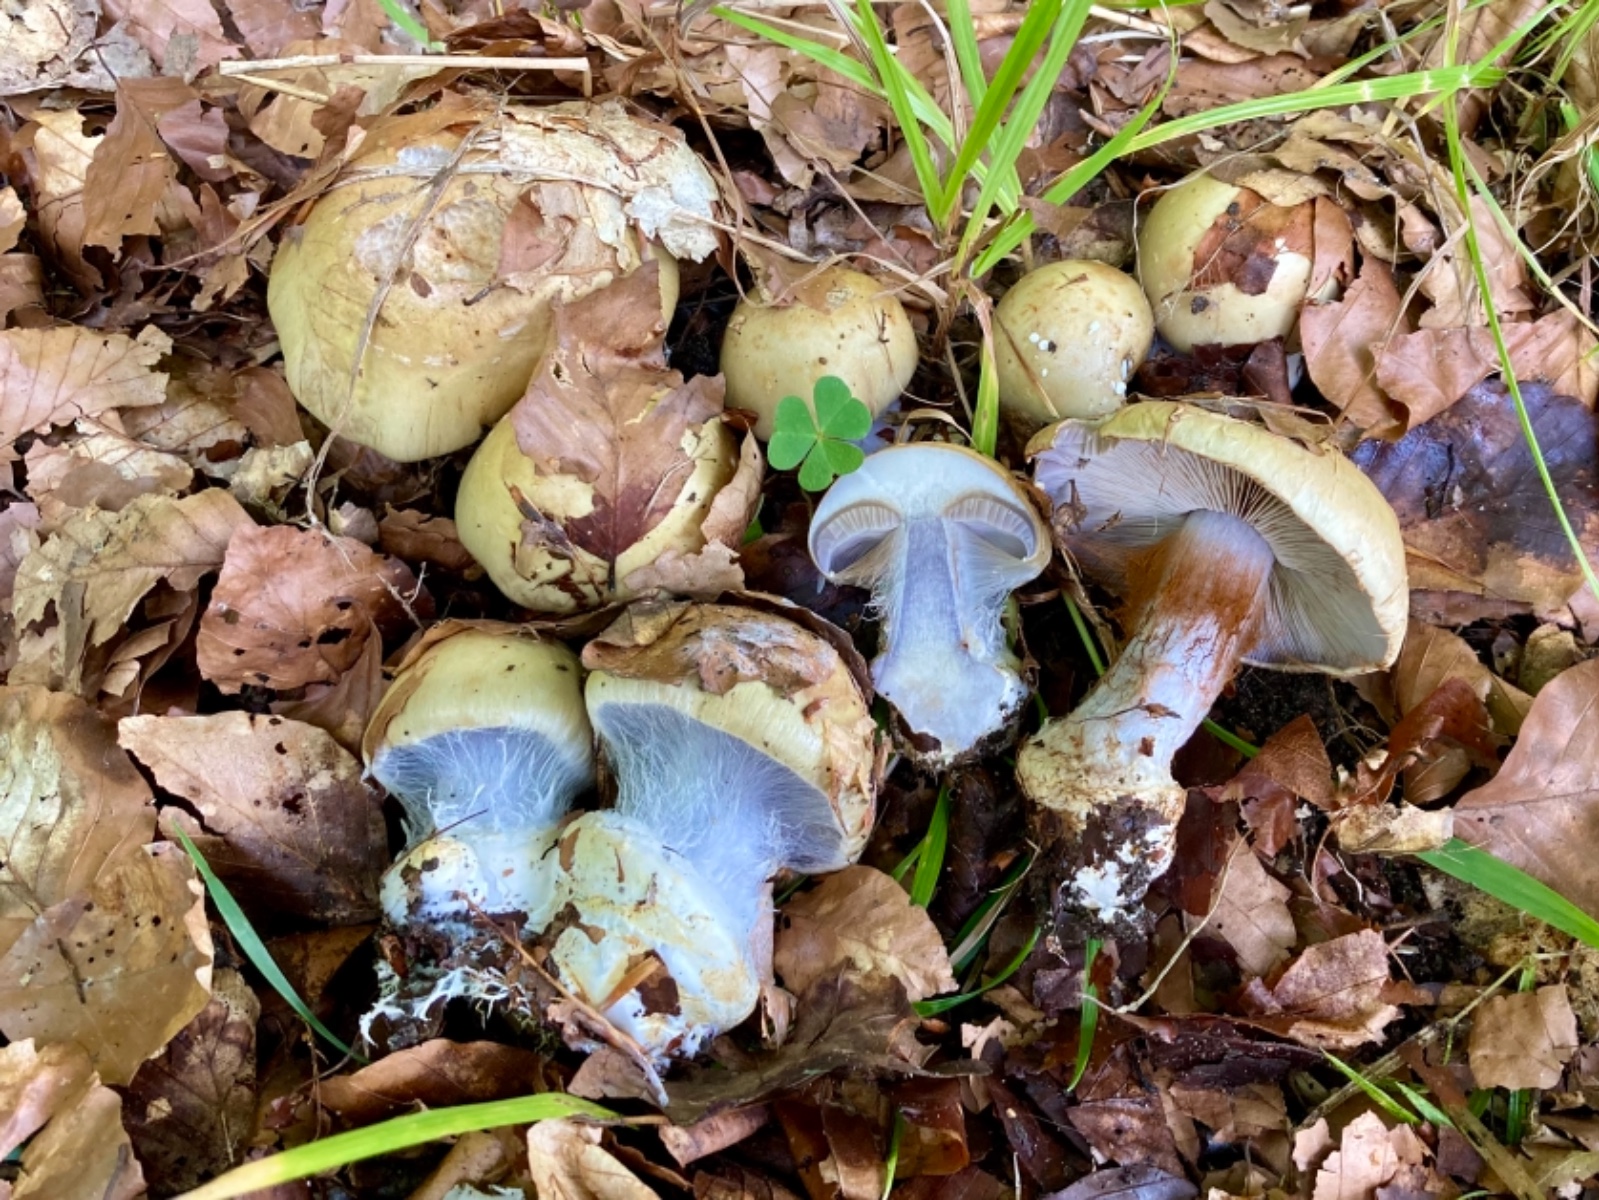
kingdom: Fungi
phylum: Basidiomycota
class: Agaricomycetes
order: Agaricales
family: Cortinariaceae
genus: Cortinarius
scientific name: Cortinarius anserinus
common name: bøge-slørhat
